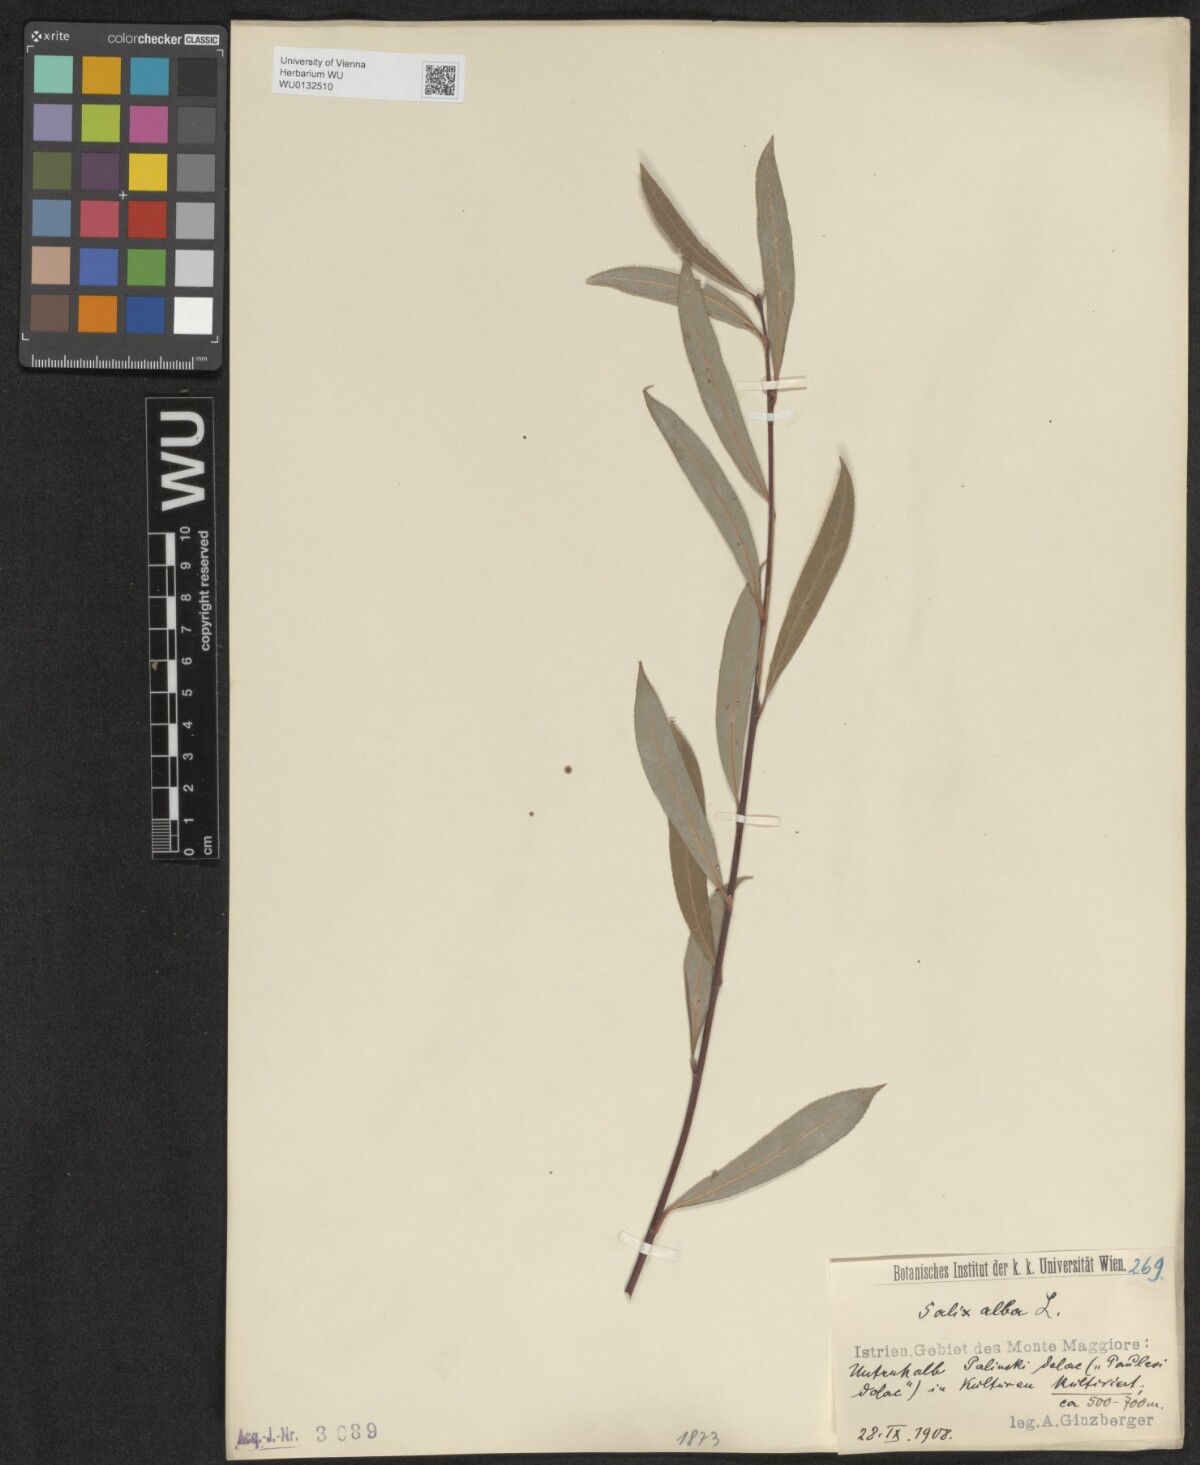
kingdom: Plantae
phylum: Tracheophyta
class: Magnoliopsida
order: Malpighiales
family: Salicaceae
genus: Salix
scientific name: Salix alba
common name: White willow
